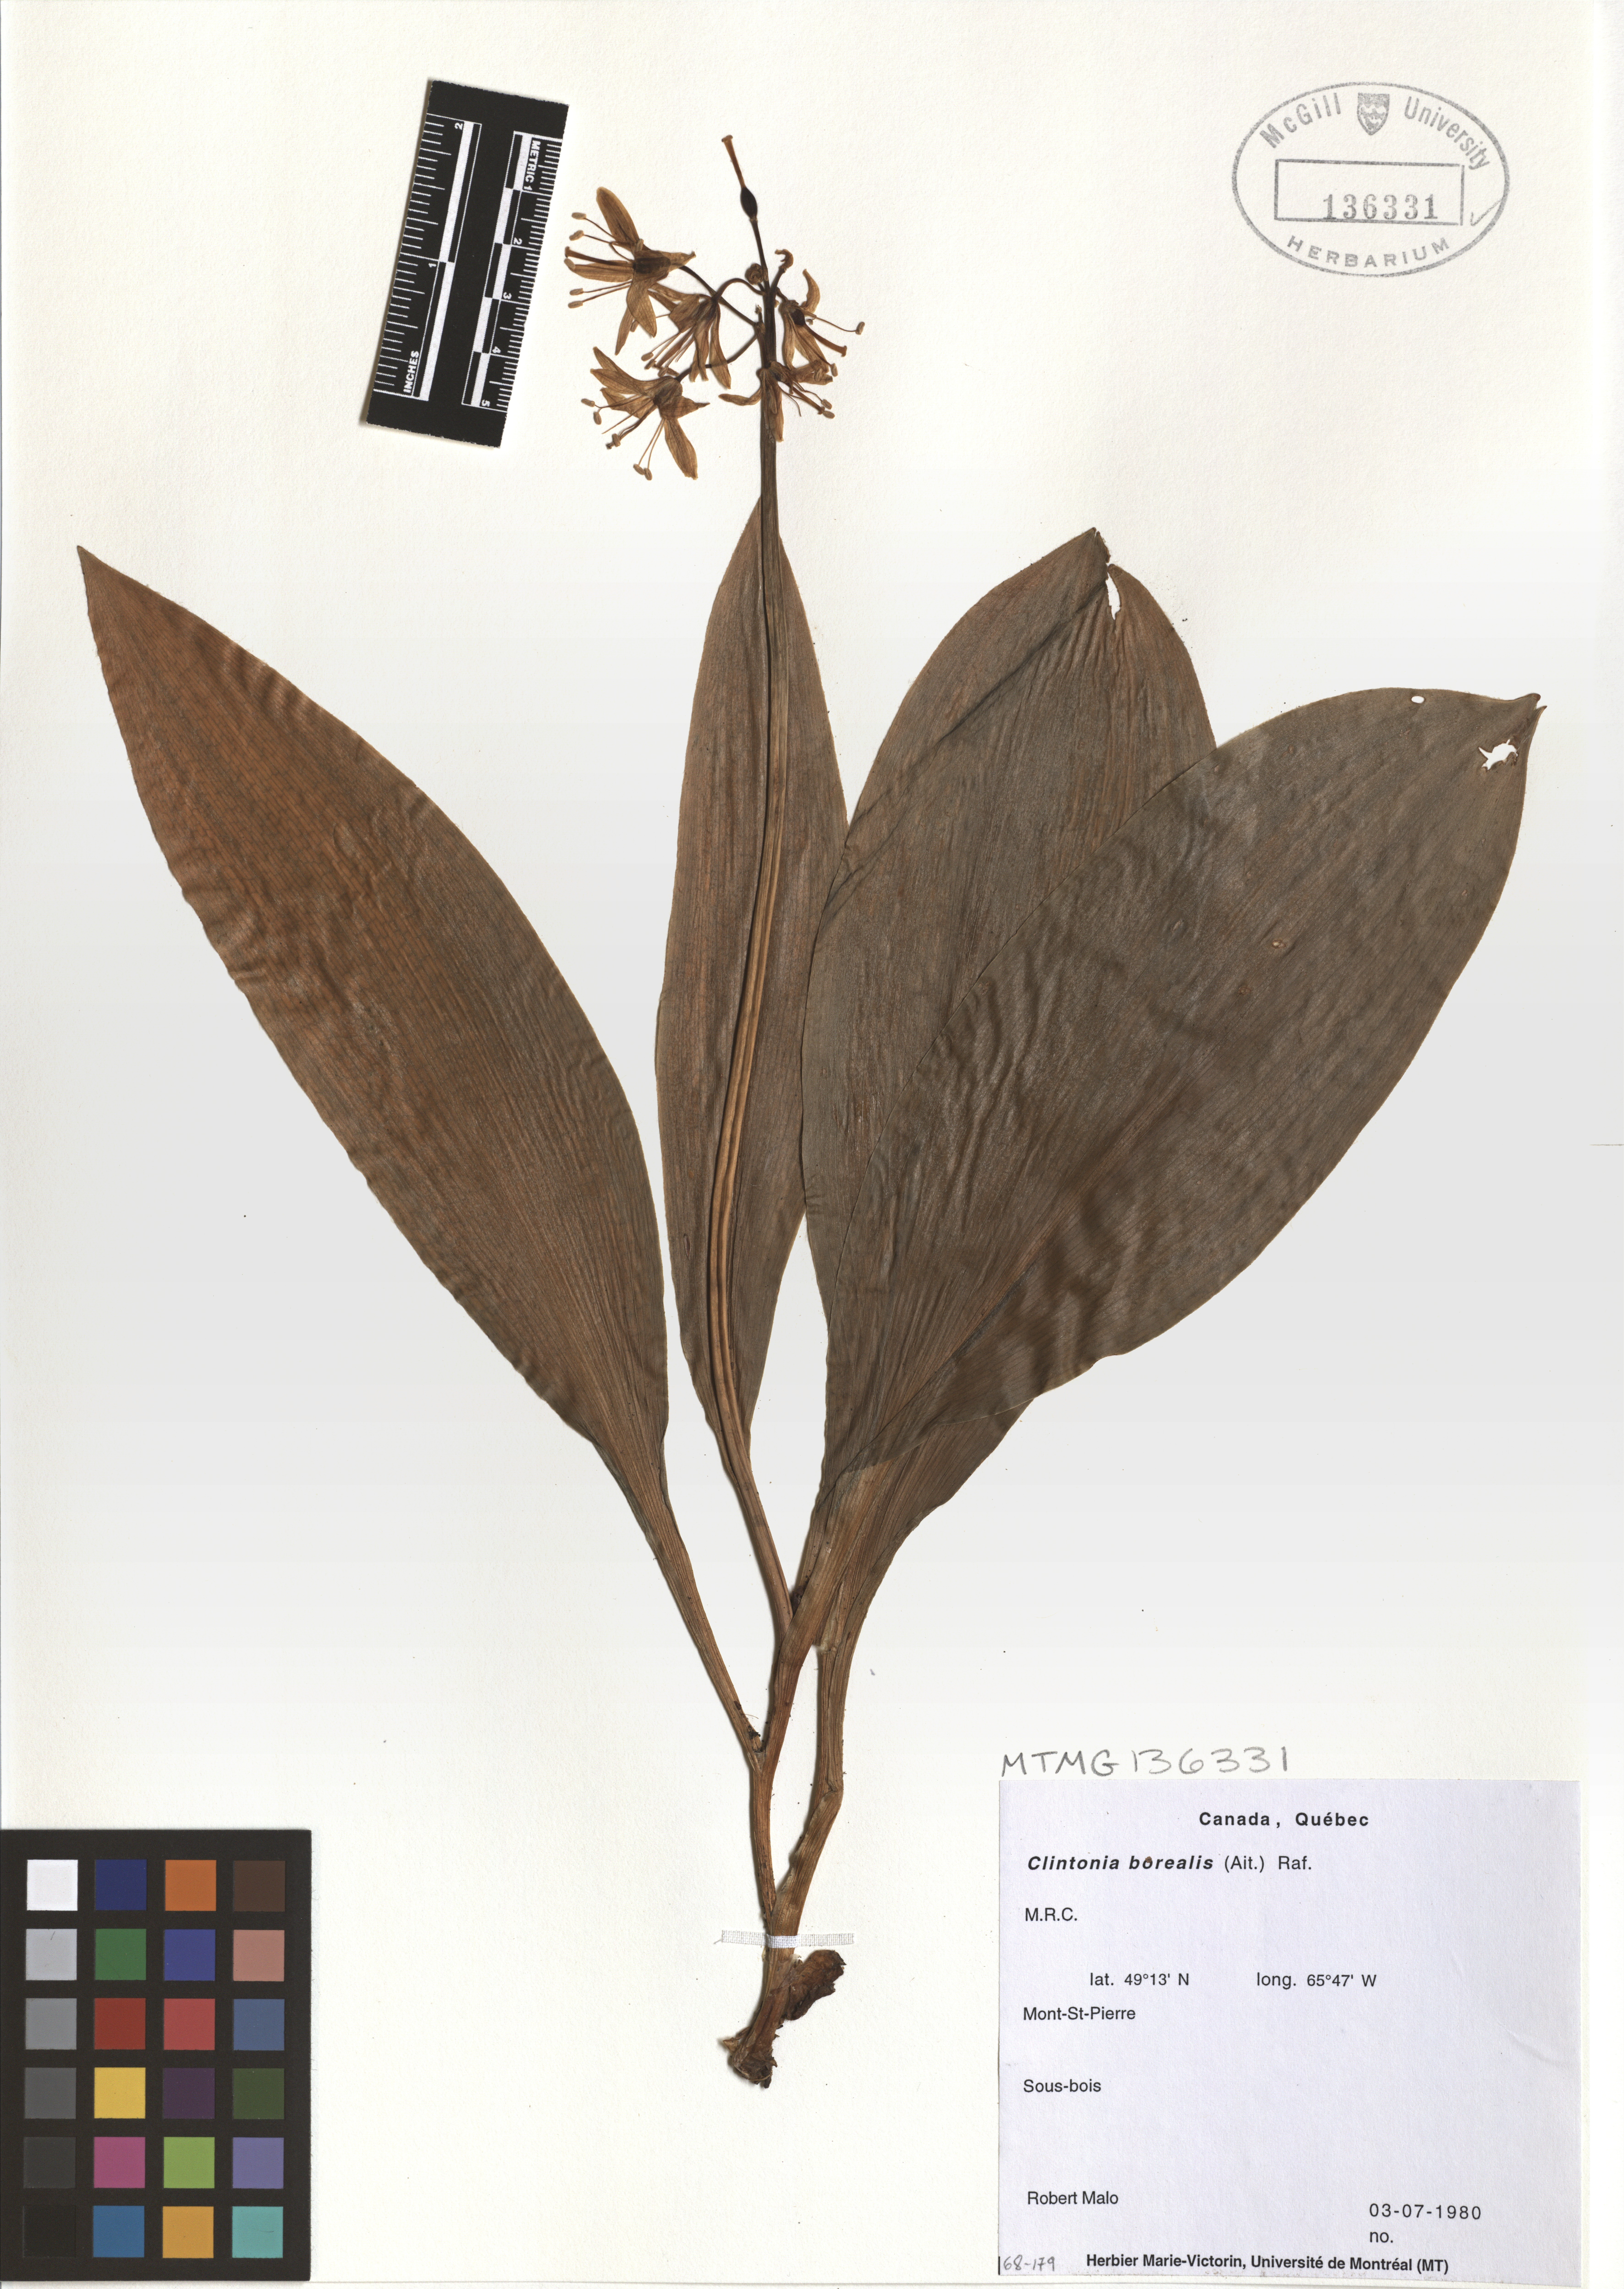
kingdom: Plantae
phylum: Tracheophyta
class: Liliopsida
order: Liliales
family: Liliaceae
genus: Clintonia
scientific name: Clintonia borealis
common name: Yellow clintonia
